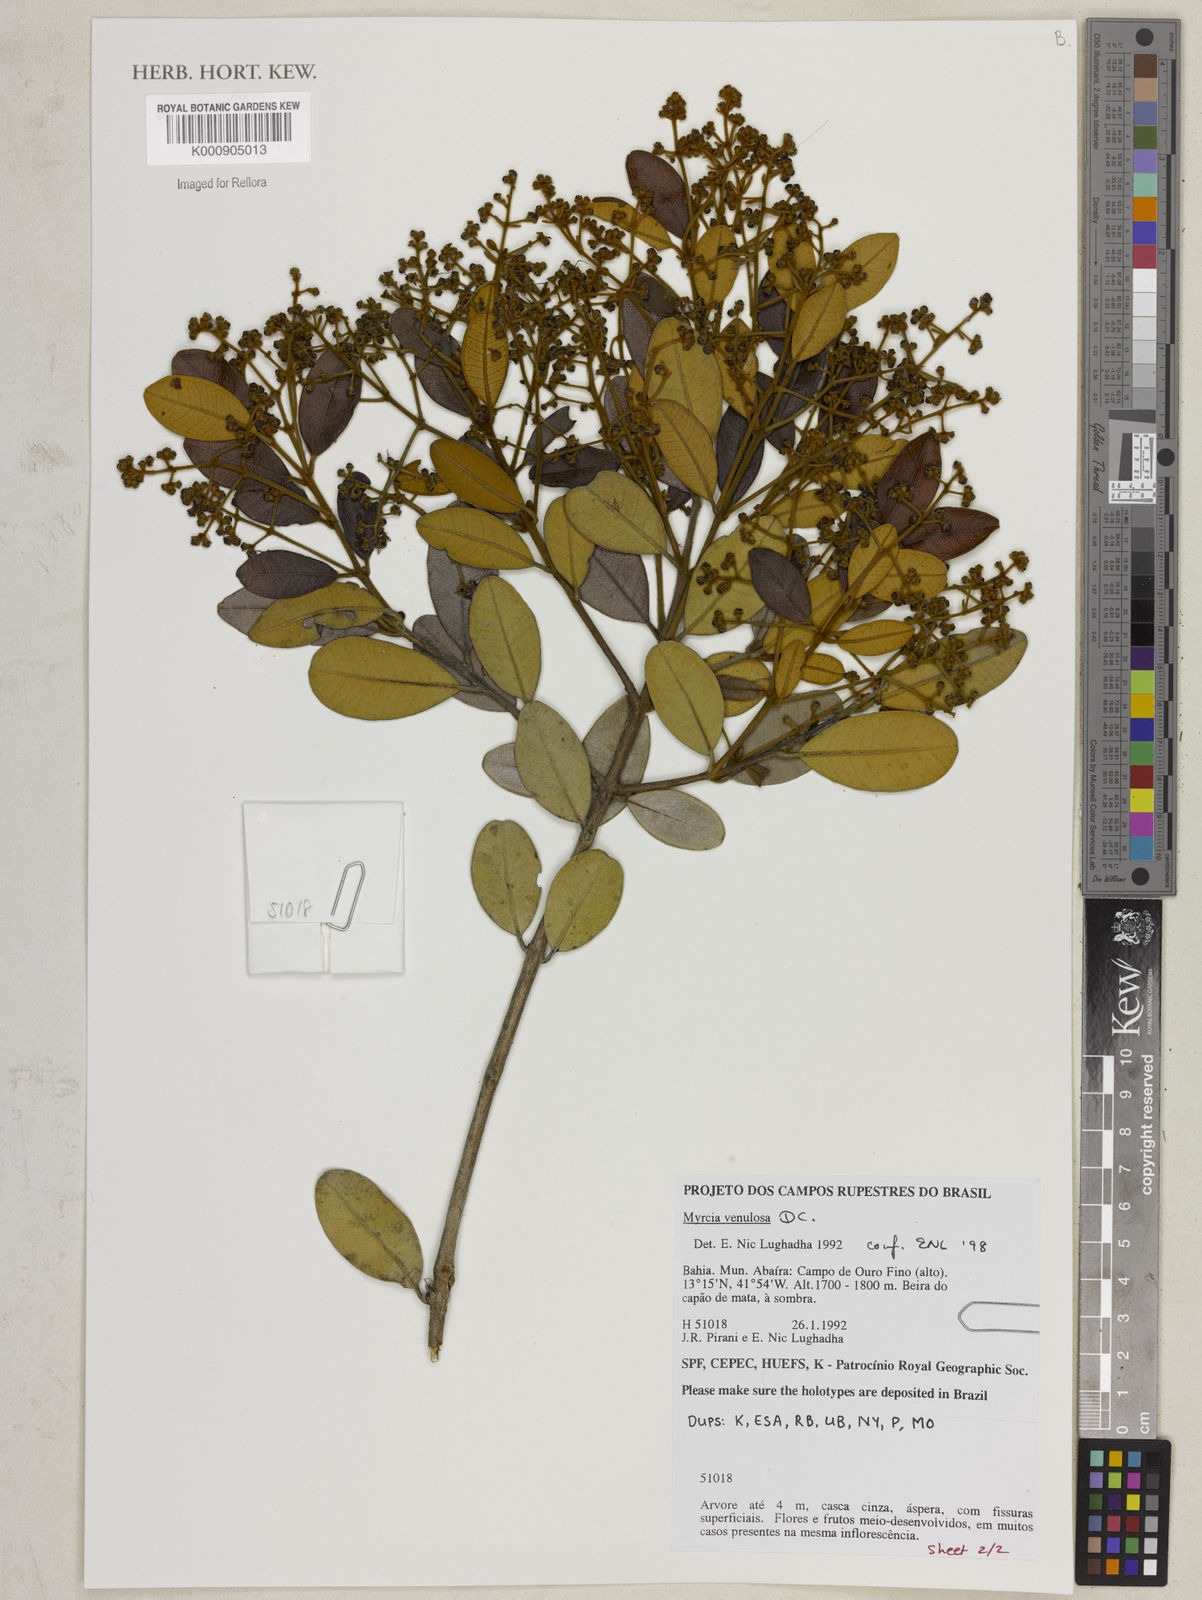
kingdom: Plantae
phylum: Tracheophyta
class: Magnoliopsida
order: Myrtales
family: Myrtaceae
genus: Myrcia
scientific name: Myrcia venulosa
